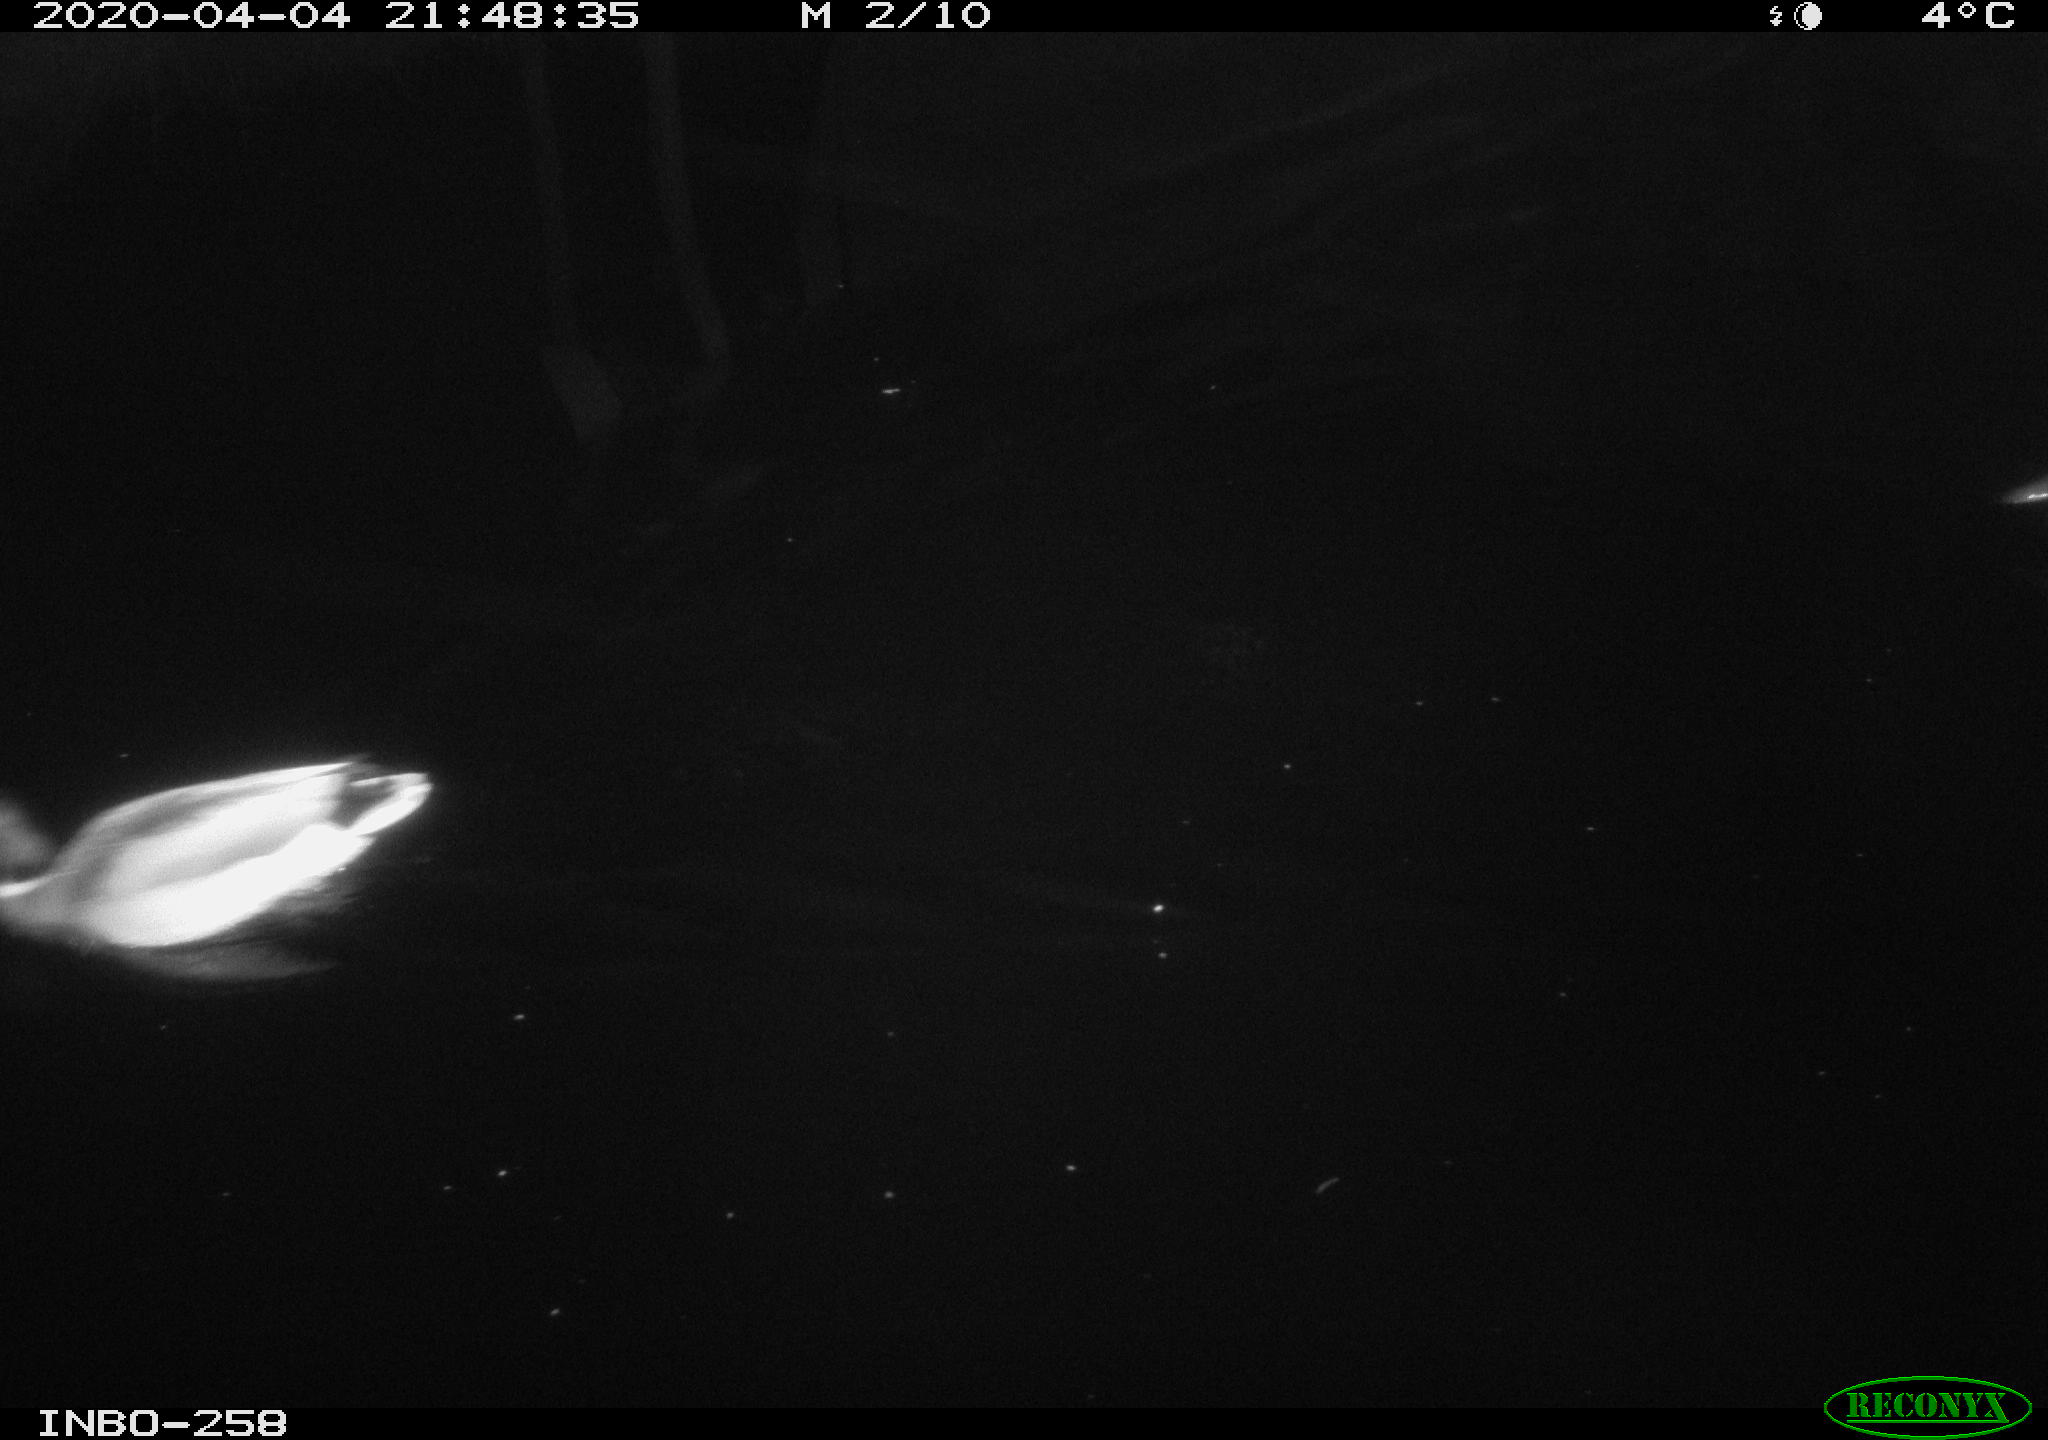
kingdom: Animalia
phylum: Chordata
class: Aves
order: Anseriformes
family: Anatidae
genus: Anas
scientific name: Anas platyrhynchos
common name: Mallard
